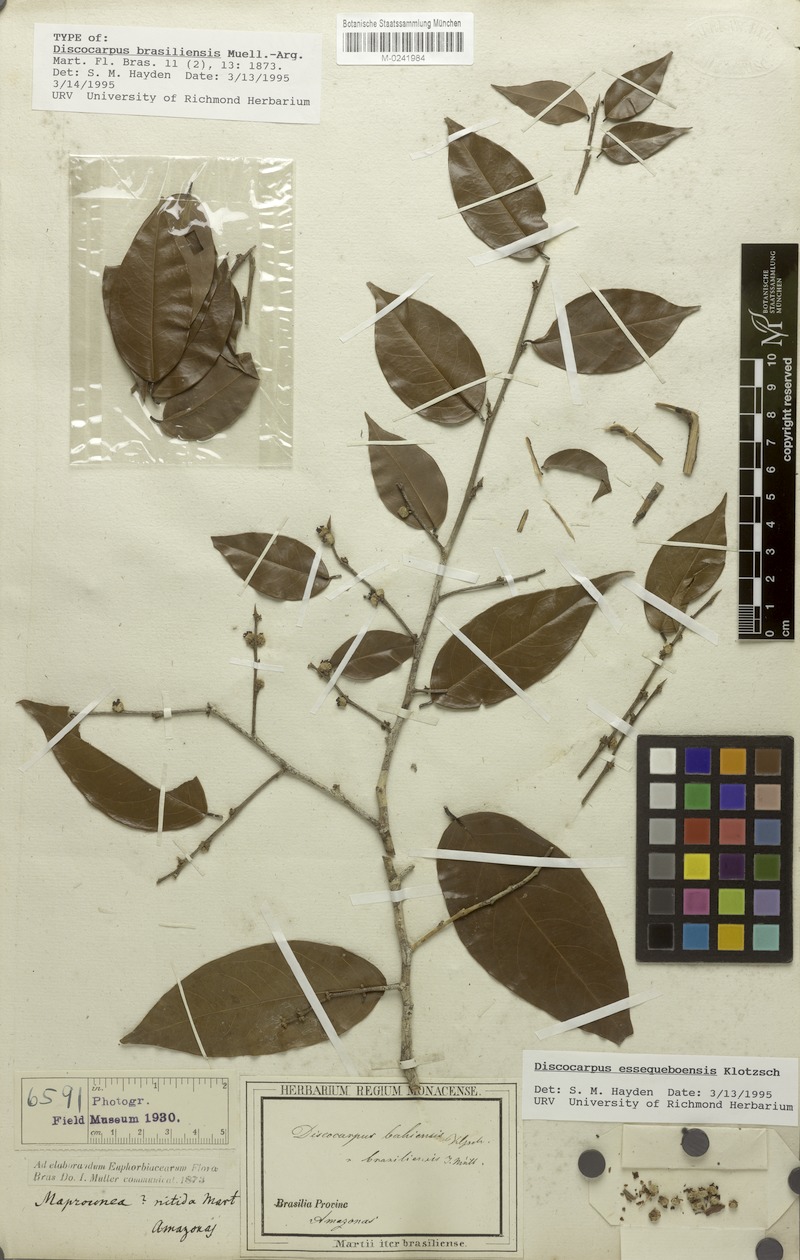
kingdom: Plantae
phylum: Tracheophyta
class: Magnoliopsida
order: Malpighiales
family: Phyllanthaceae
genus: Discocarpus
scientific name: Discocarpus essequeboensis
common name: Sqaure-wood
